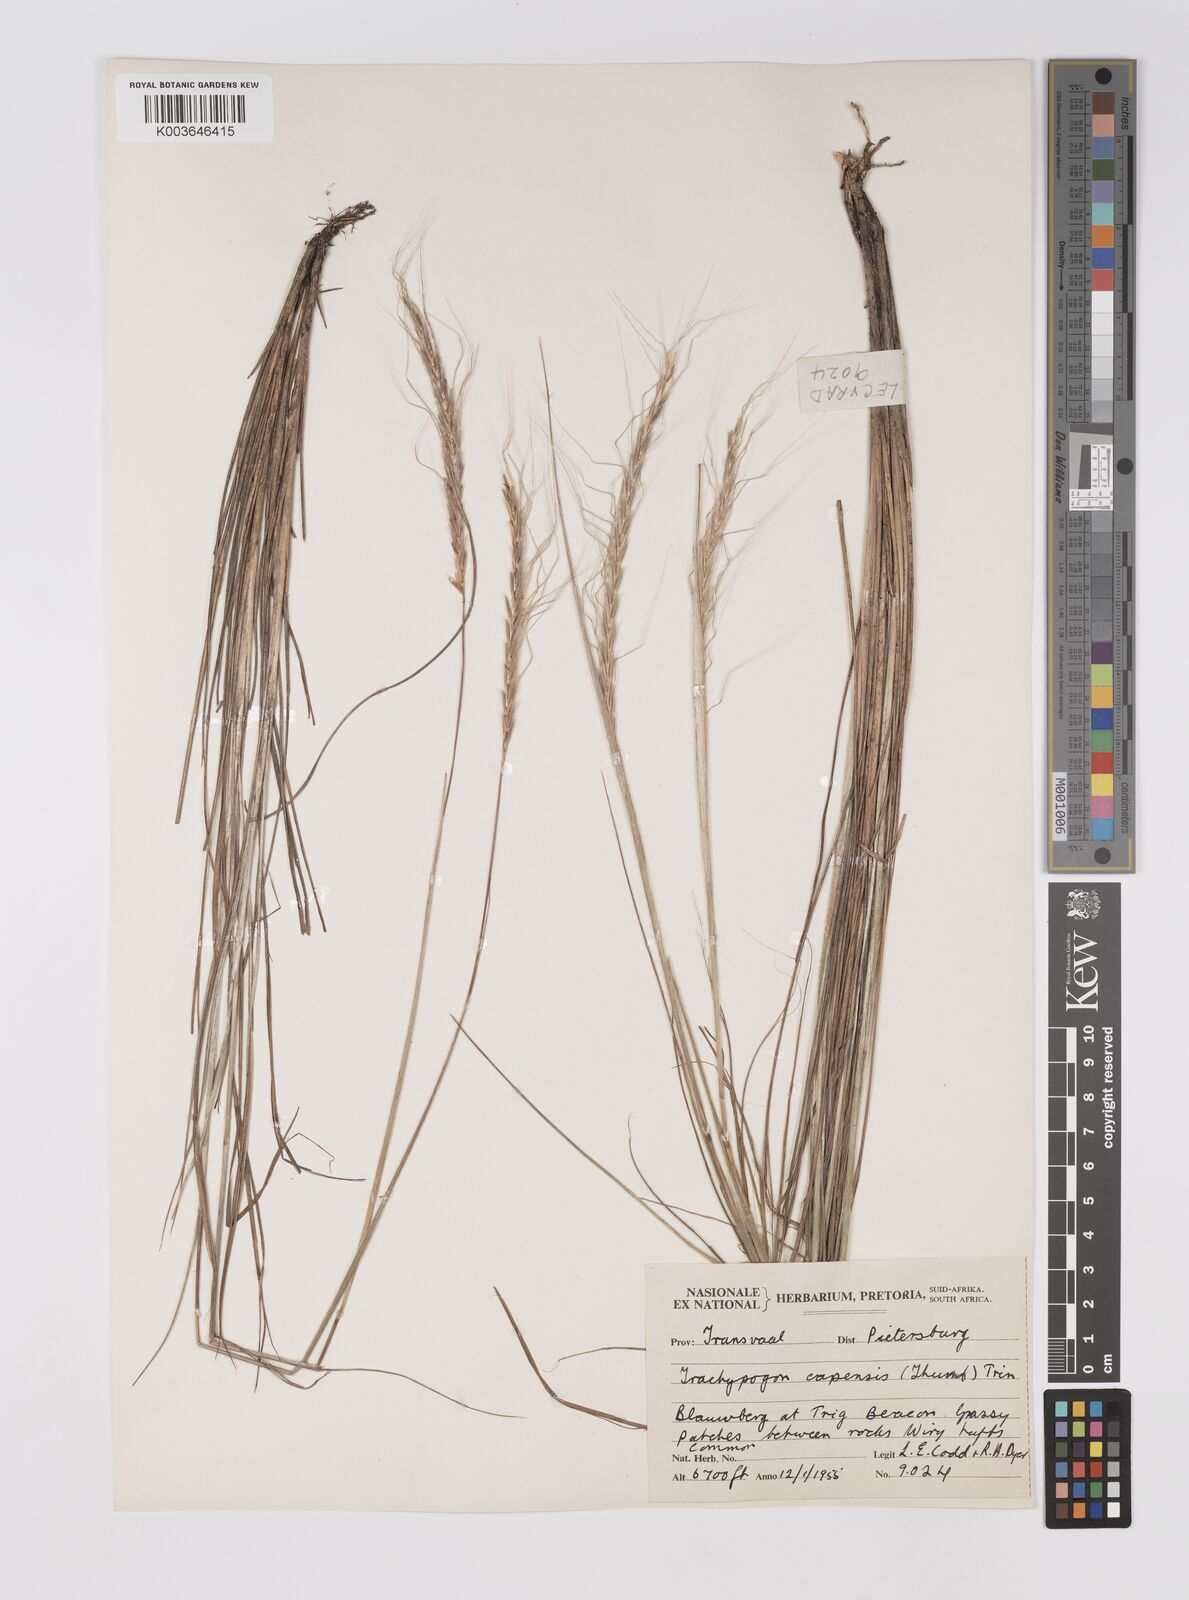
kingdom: Plantae
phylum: Tracheophyta
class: Liliopsida
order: Poales
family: Poaceae
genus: Trachypogon
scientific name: Trachypogon spicatus
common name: Crinkle-awn
